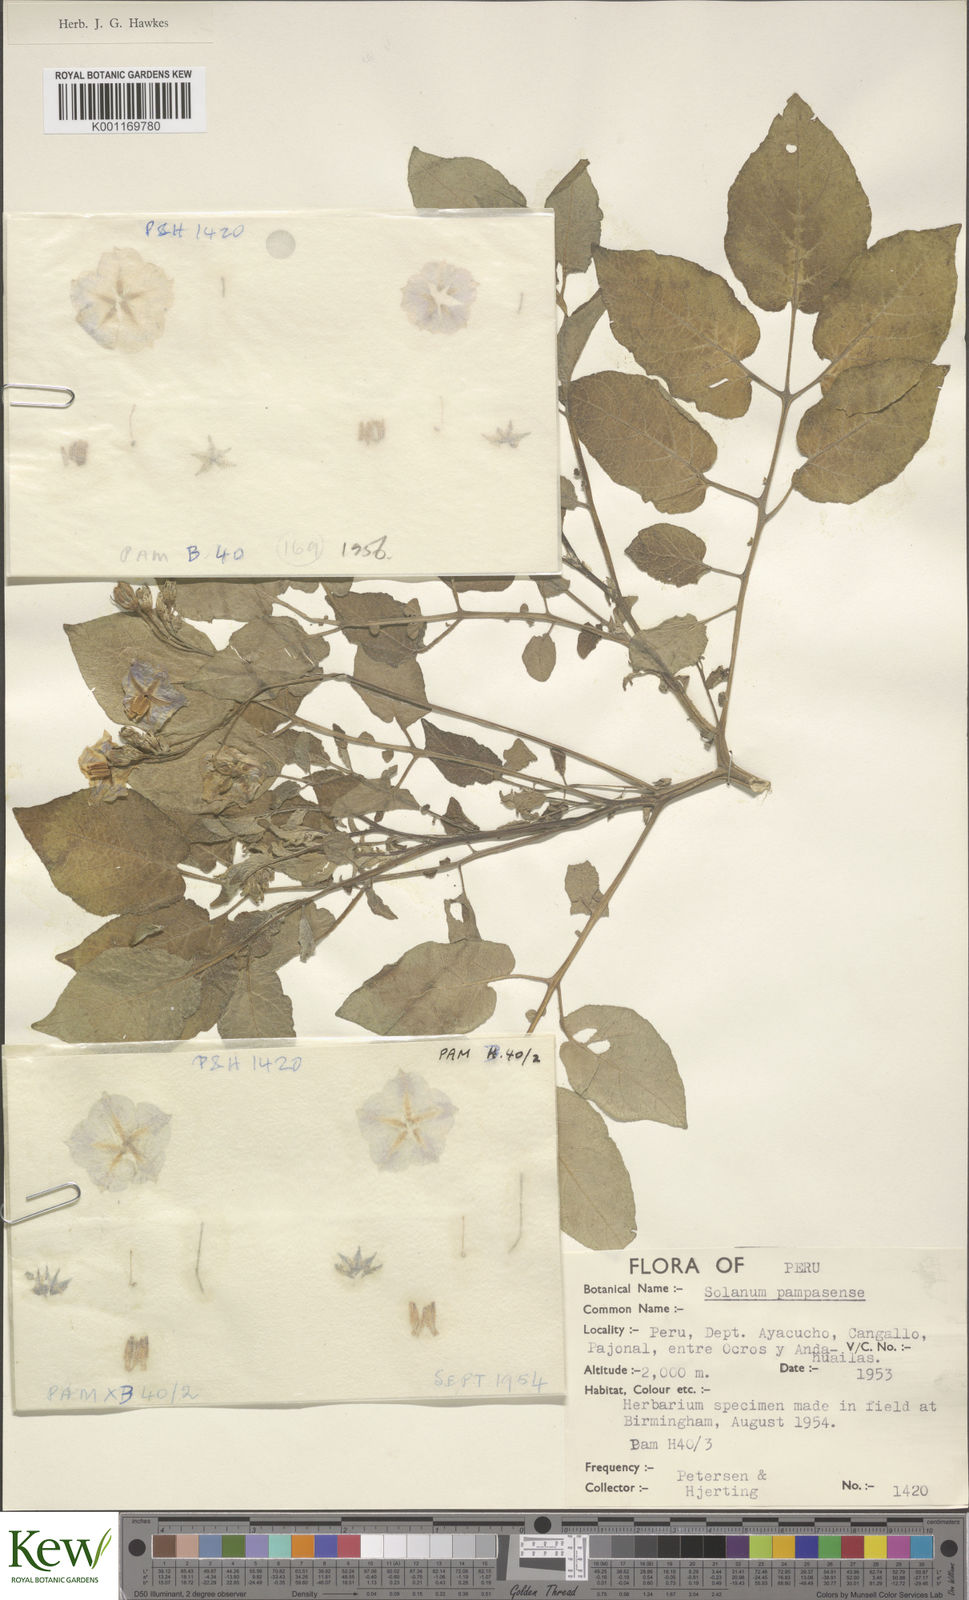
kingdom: Plantae
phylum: Tracheophyta
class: Magnoliopsida
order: Solanales
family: Solanaceae
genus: Solanum
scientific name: Solanum candolleanum
